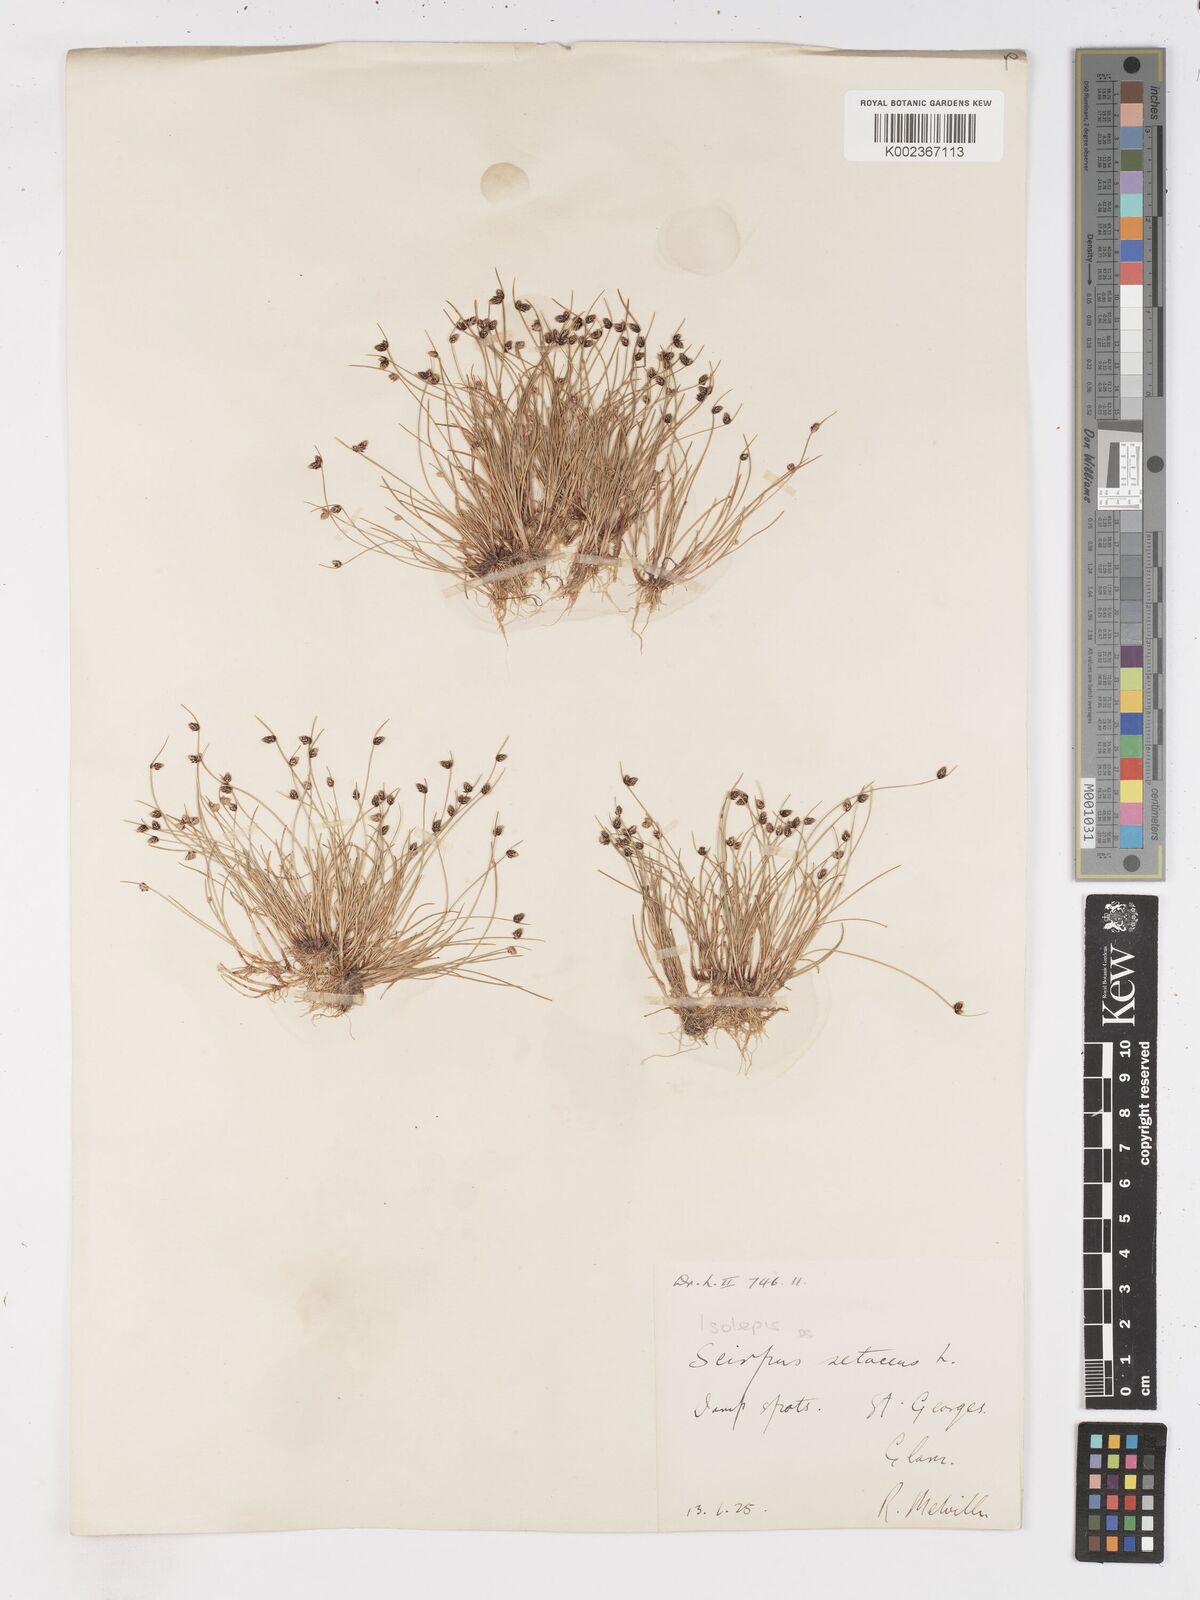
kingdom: Plantae
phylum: Tracheophyta
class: Liliopsida
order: Poales
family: Cyperaceae
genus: Isolepis
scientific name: Isolepis setacea
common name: Bristle club-rush
